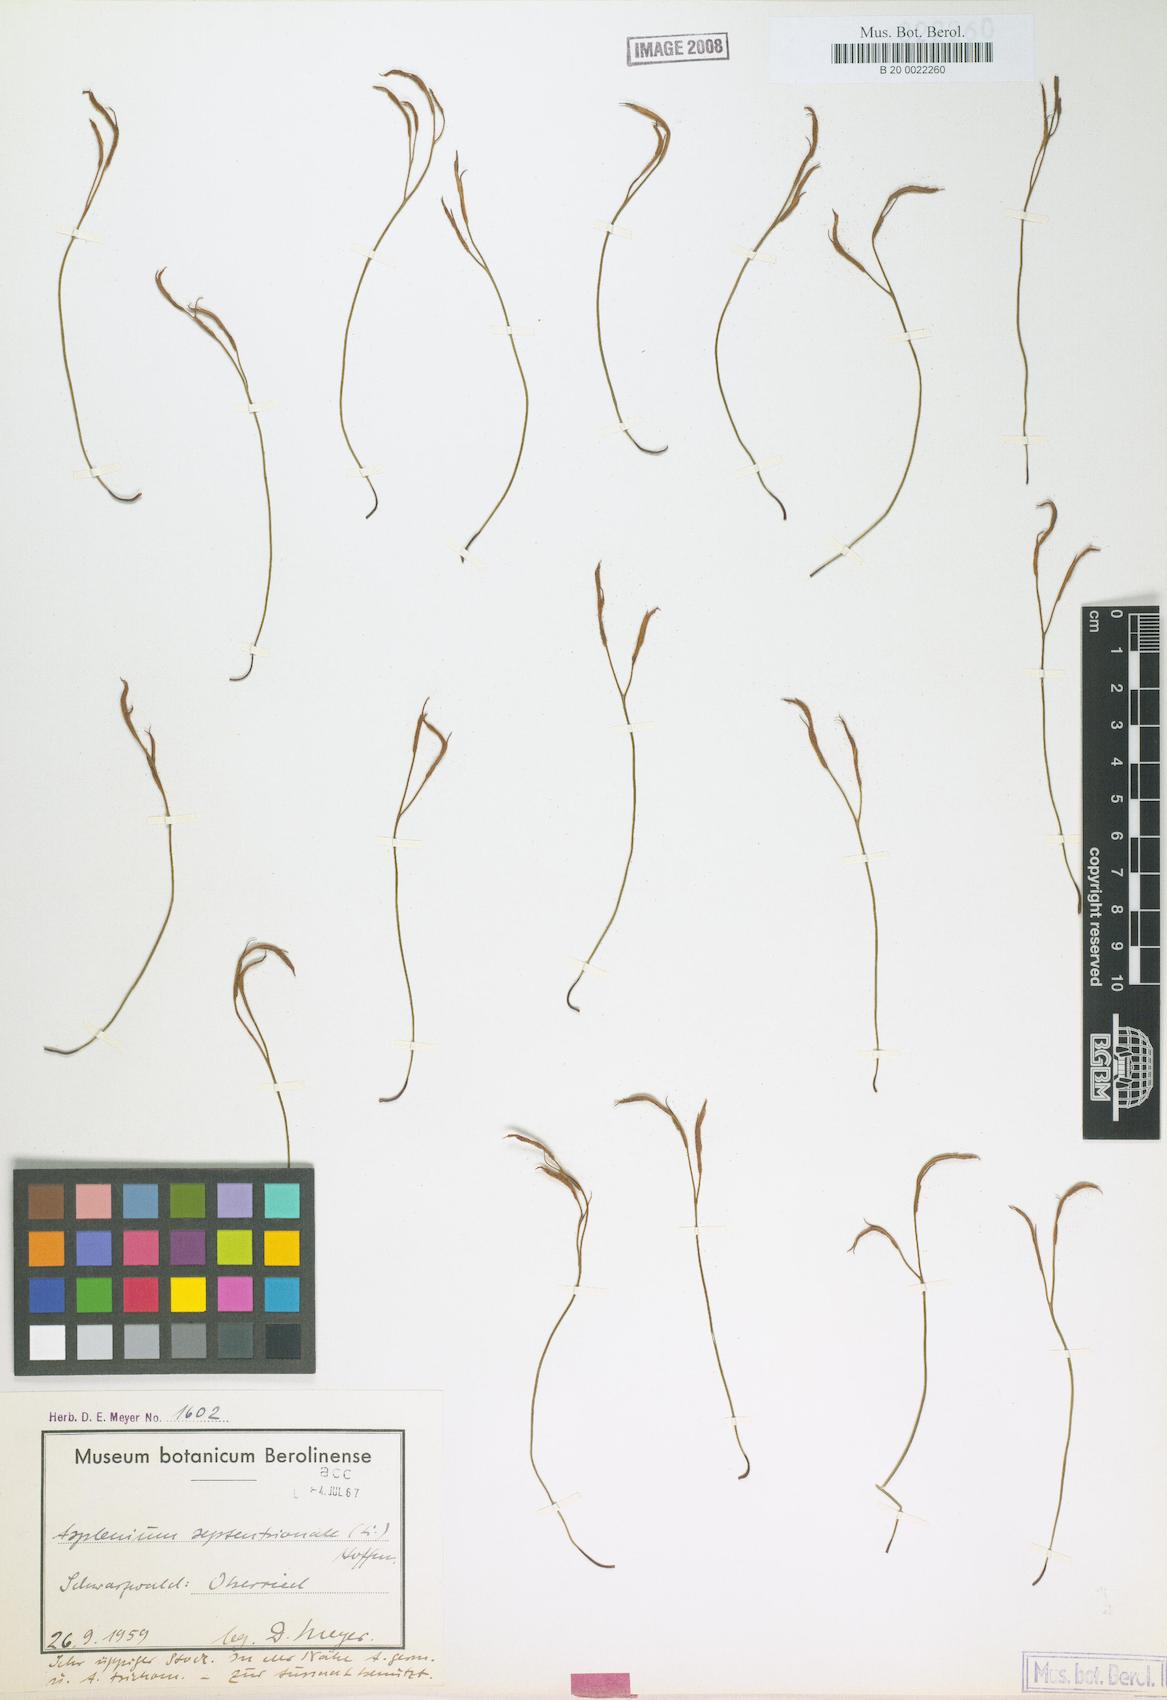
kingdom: Plantae
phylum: Tracheophyta
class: Polypodiopsida
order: Polypodiales
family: Aspleniaceae
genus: Asplenium
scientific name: Asplenium septentrionale
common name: Forked spleenwort
